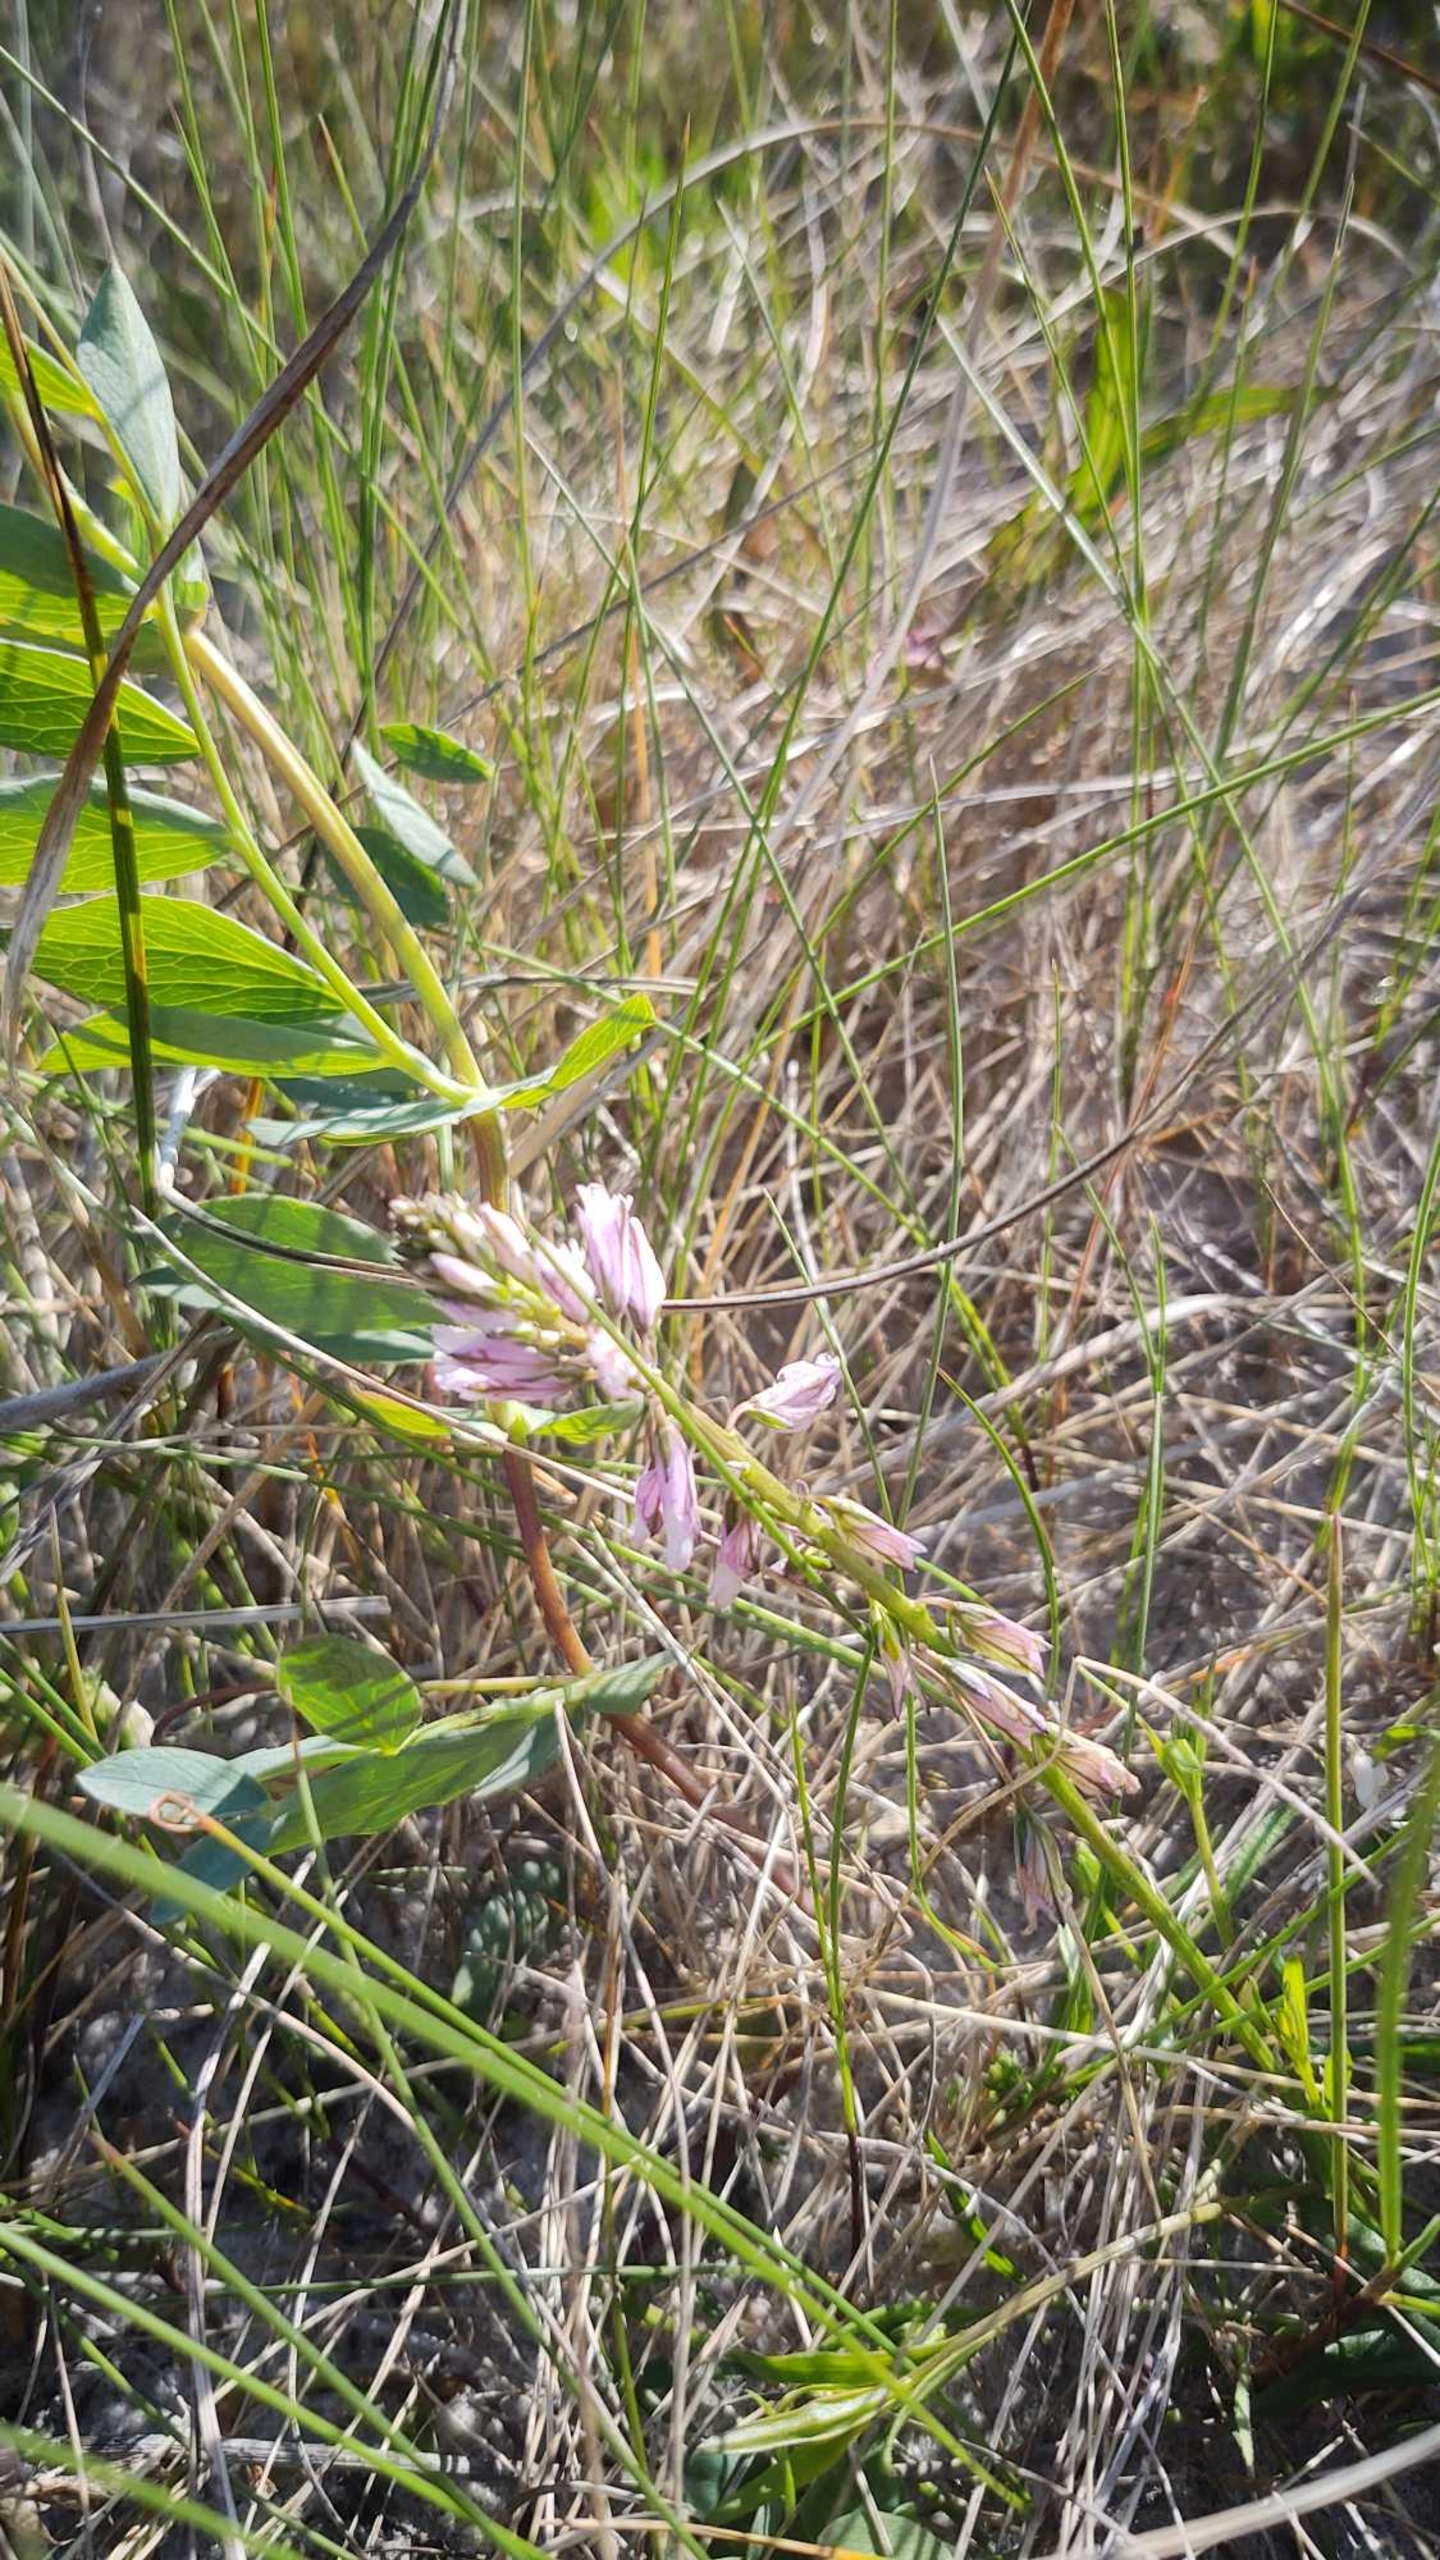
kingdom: Plantae
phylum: Tracheophyta
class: Magnoliopsida
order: Fabales
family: Polygalaceae
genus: Polygala
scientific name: Polygala vulgaris
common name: Almindelig mælkeurt
